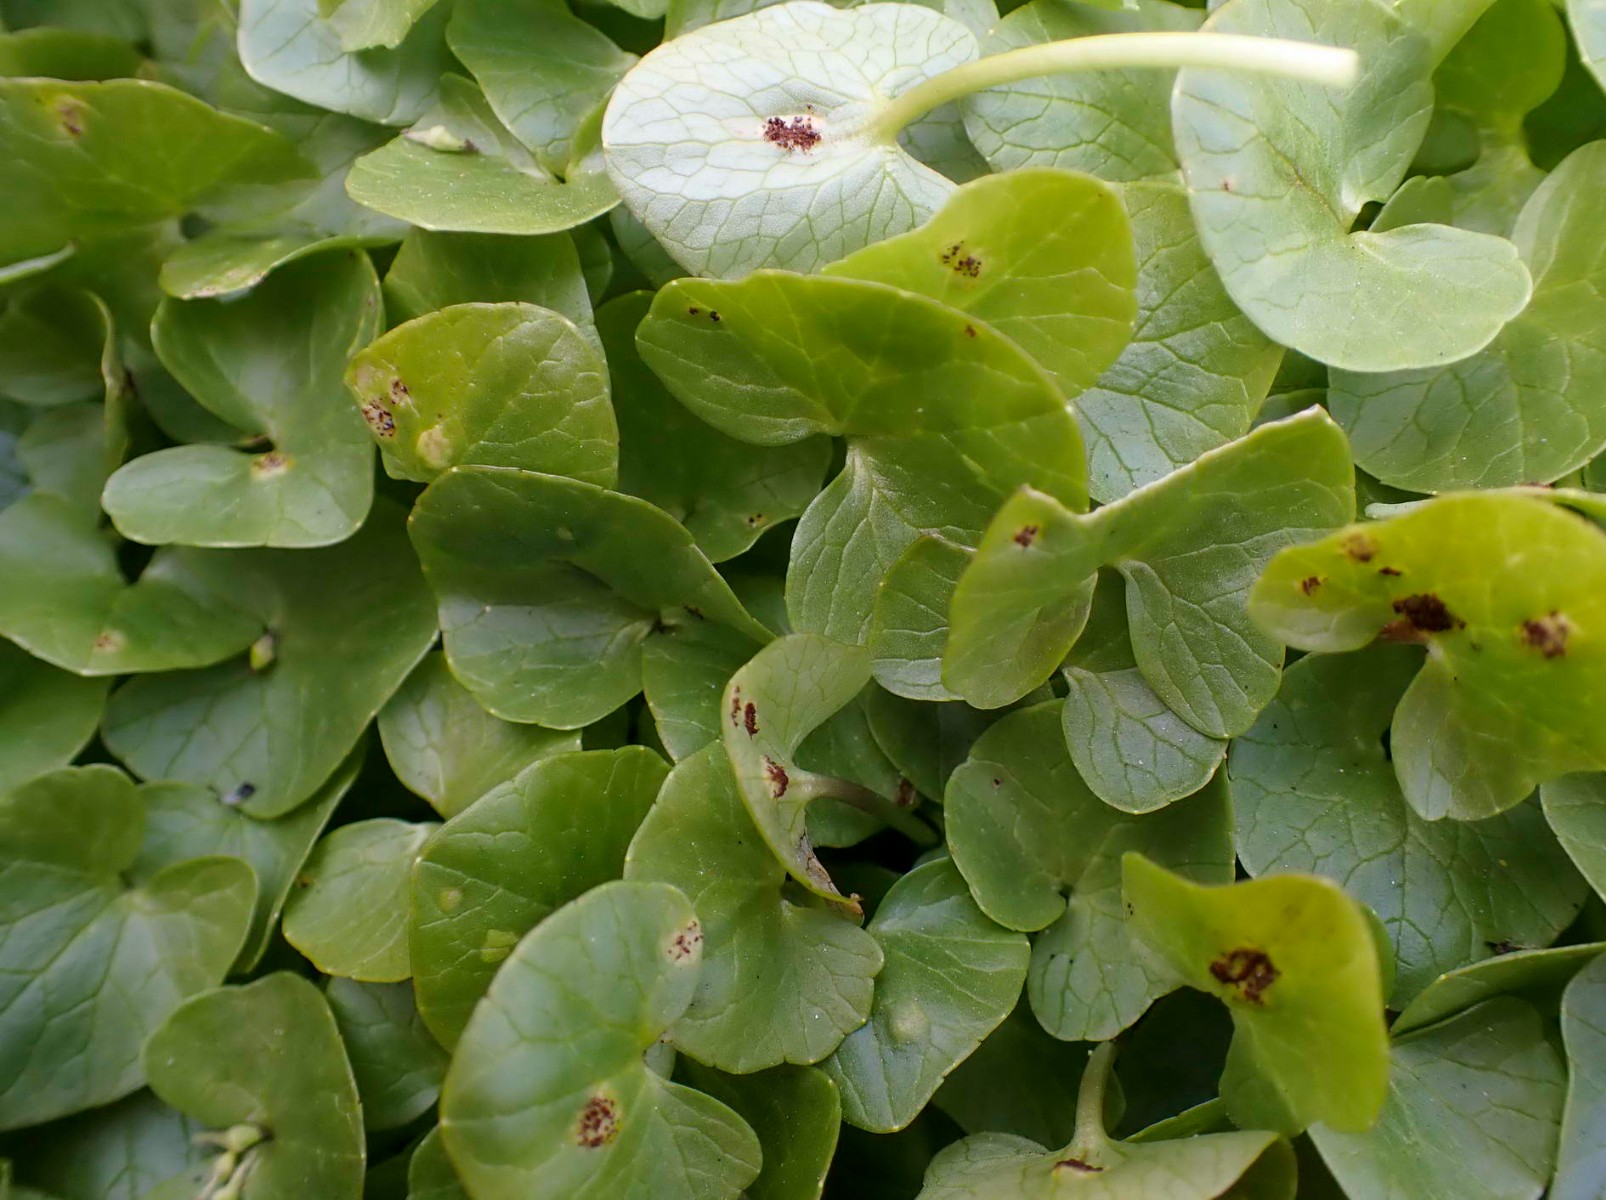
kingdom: Fungi
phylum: Basidiomycota
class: Pucciniomycetes
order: Pucciniales
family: Pucciniaceae
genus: Uromyces
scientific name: Uromyces ficariae
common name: vorterod-encellerust
